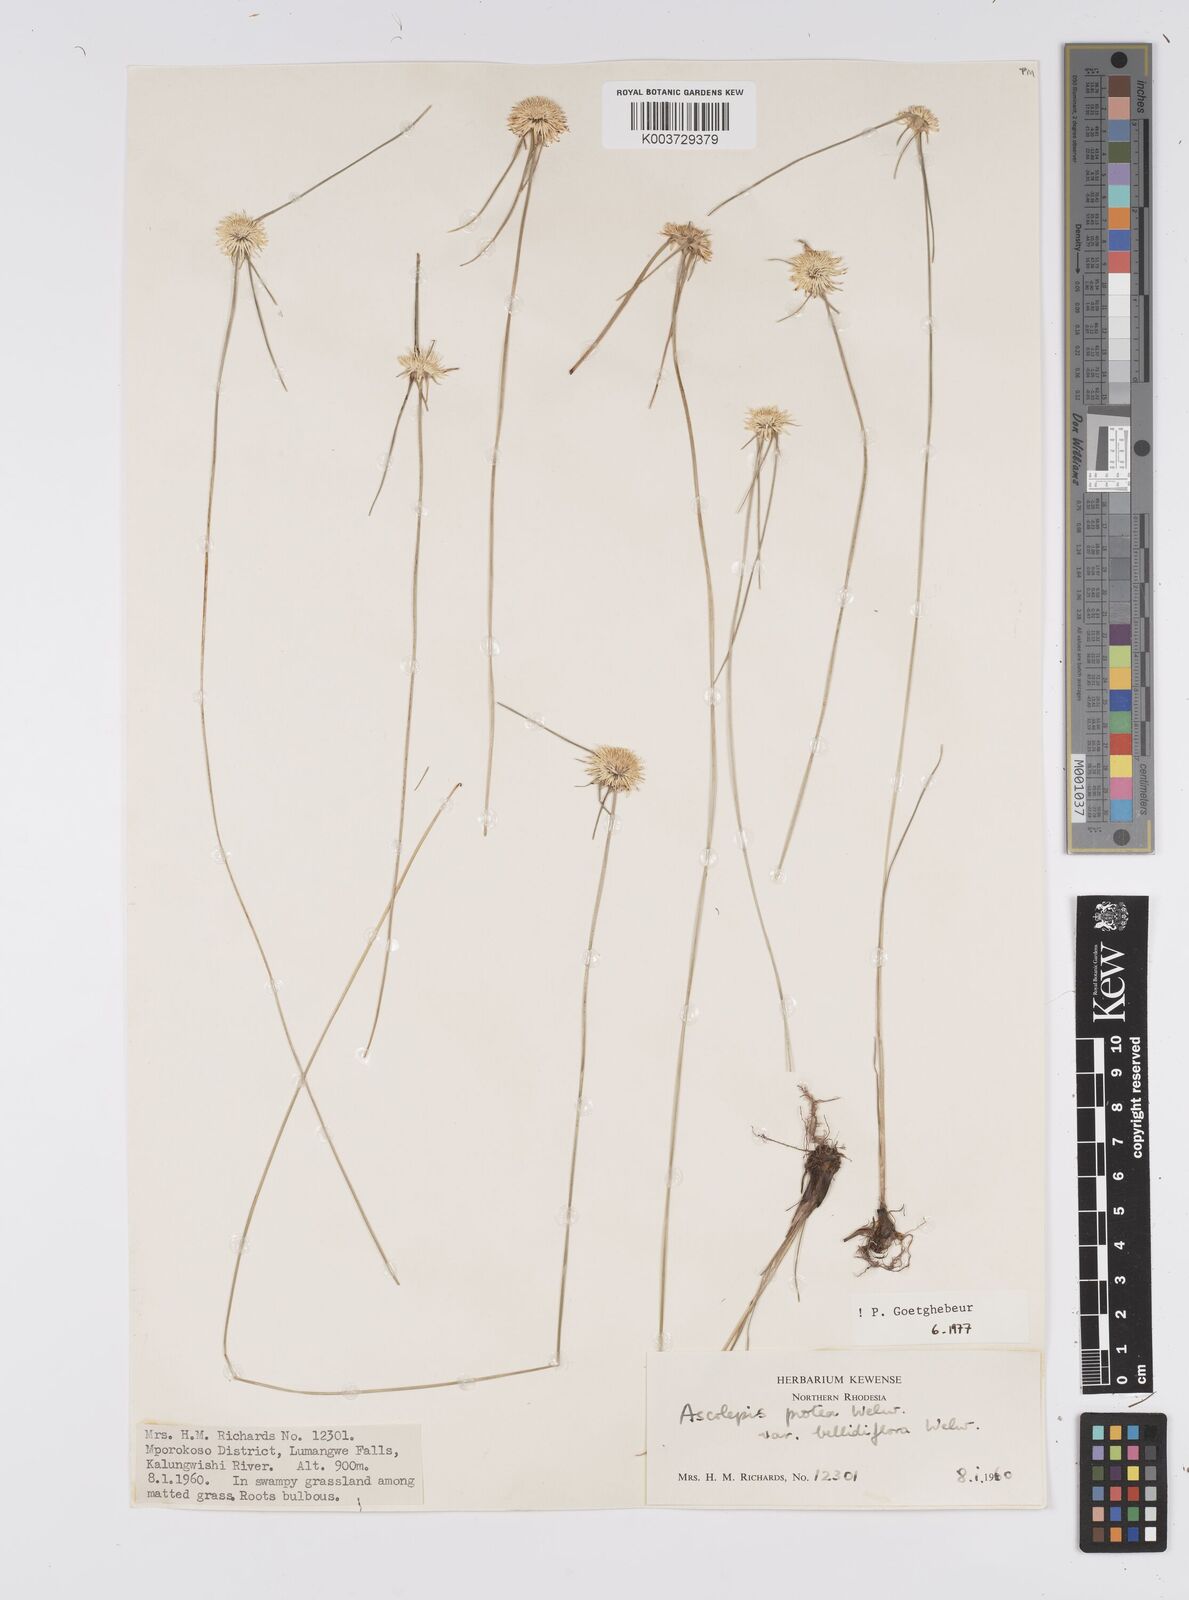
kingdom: Plantae
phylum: Tracheophyta
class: Liliopsida
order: Poales
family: Cyperaceae
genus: Cyperus
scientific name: Cyperus proteus
